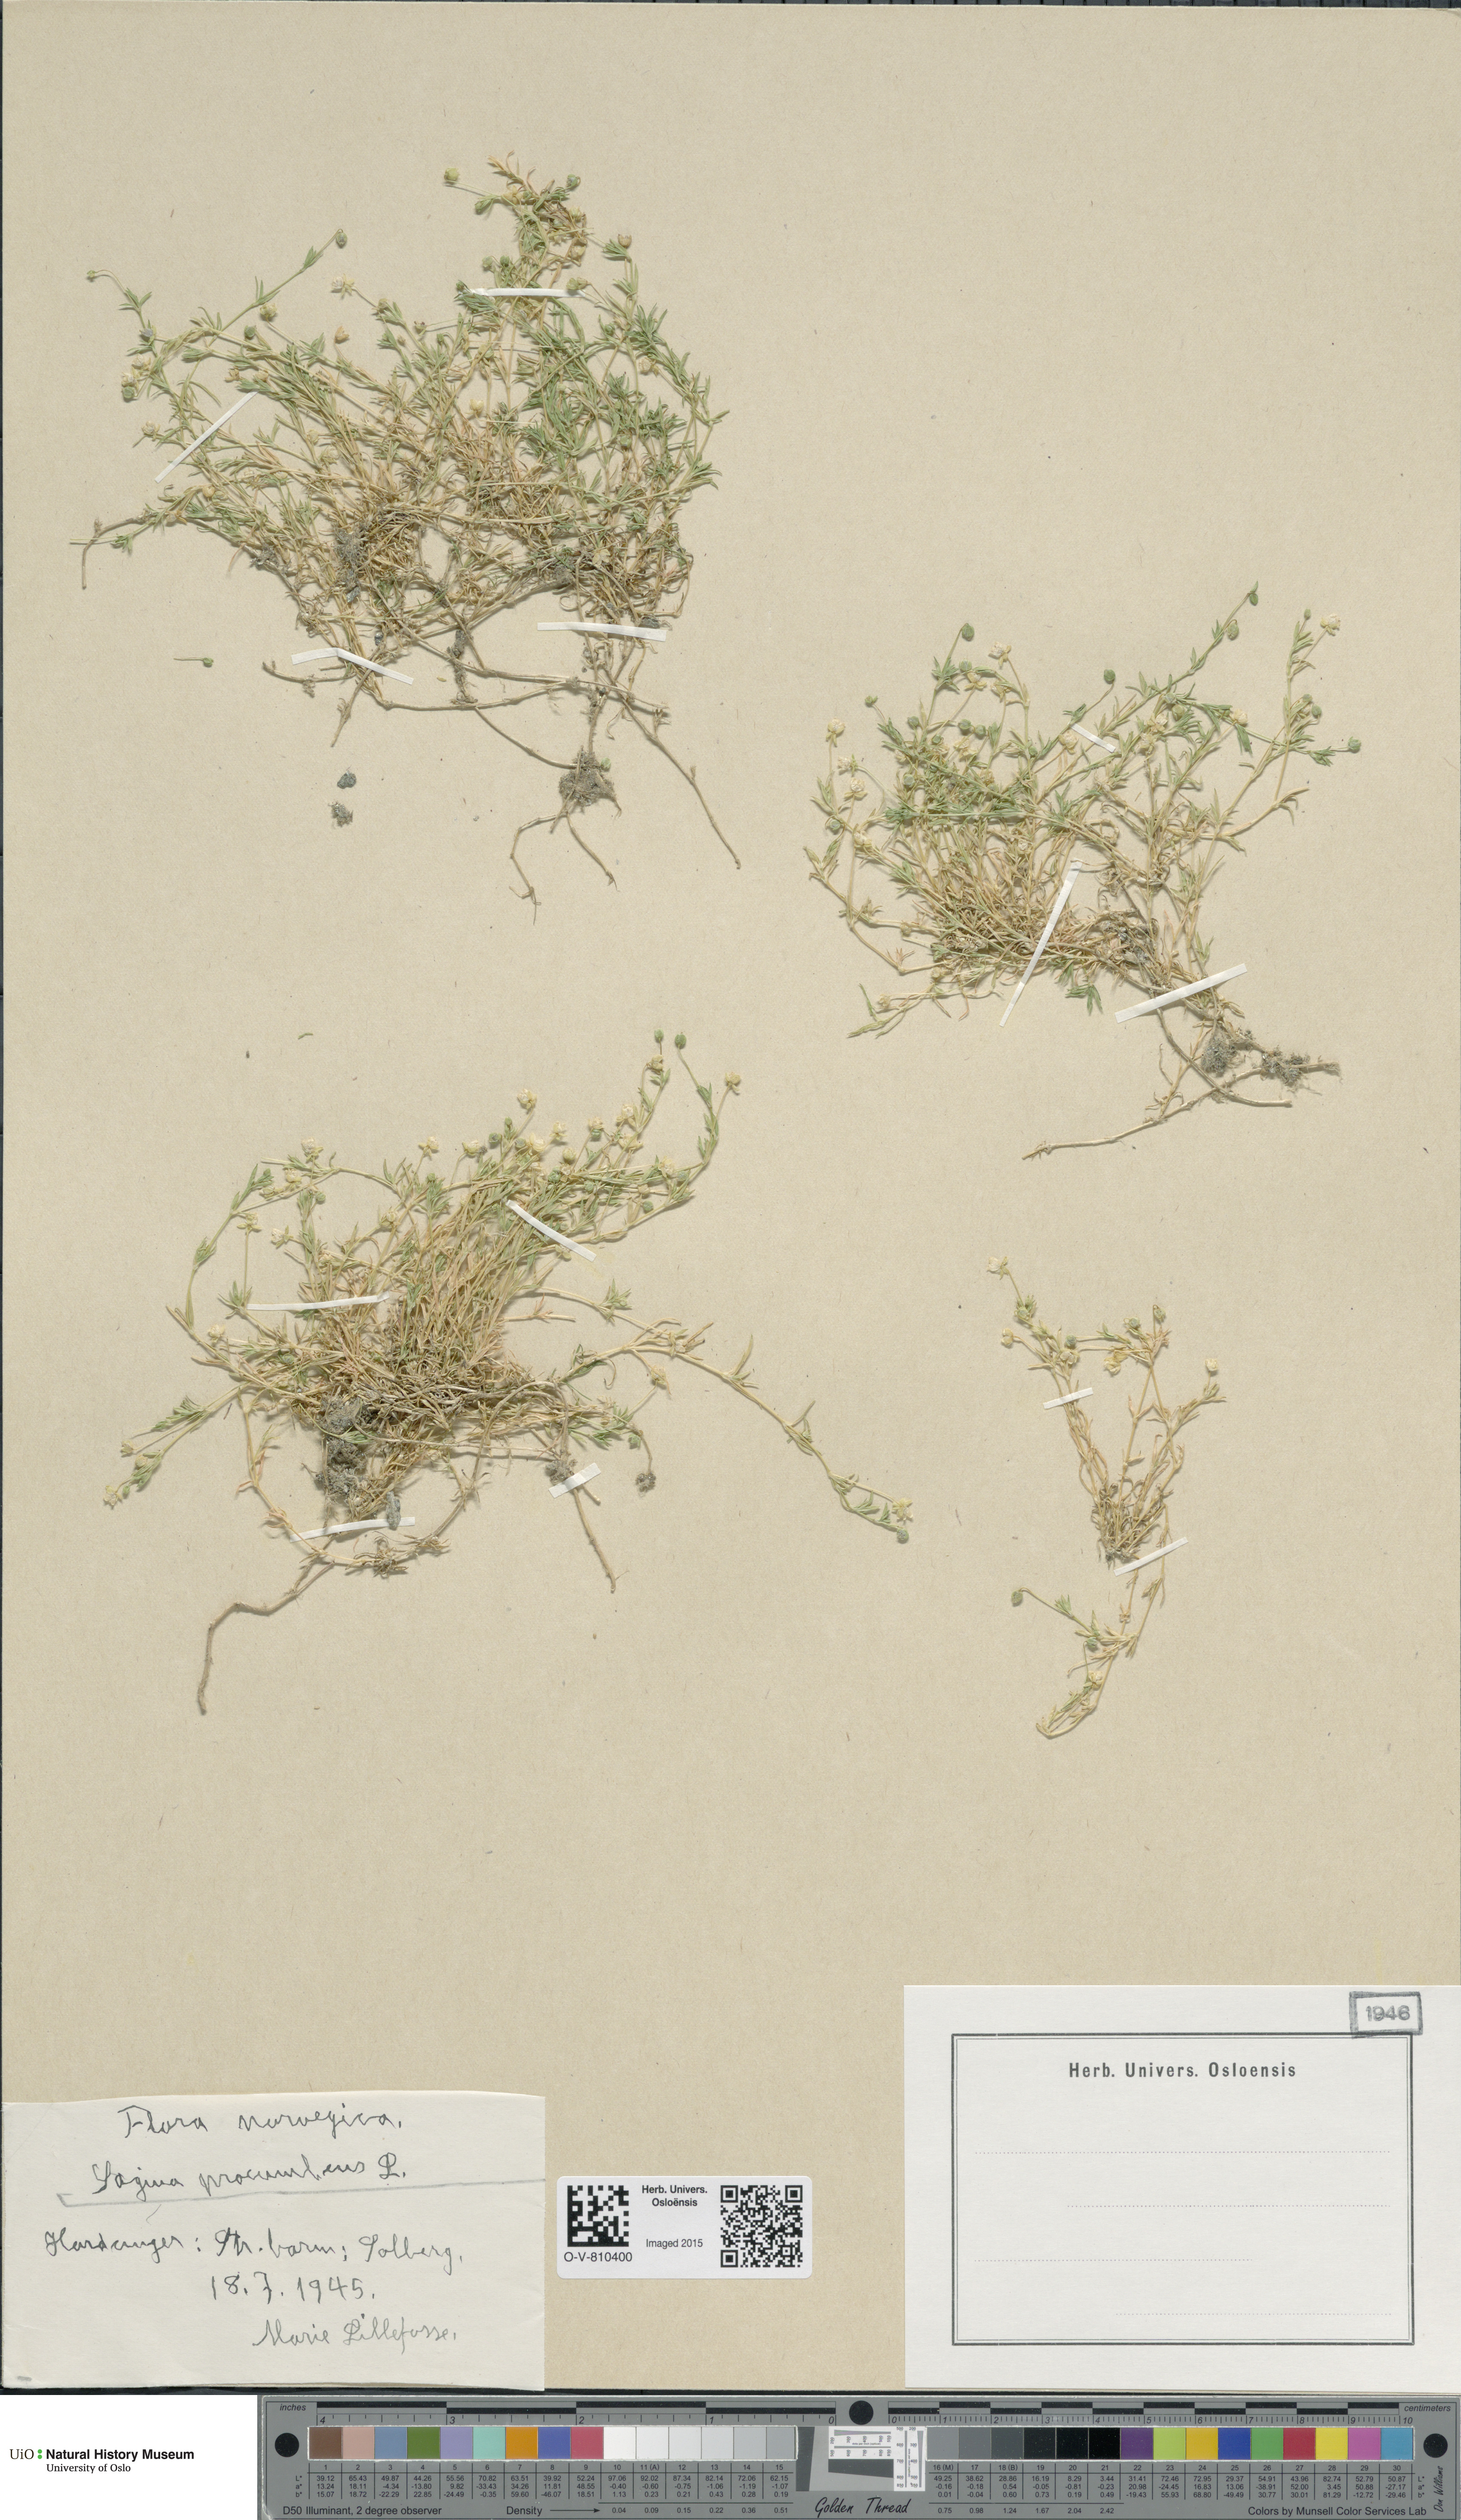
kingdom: Plantae
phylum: Tracheophyta
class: Magnoliopsida
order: Caryophyllales
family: Caryophyllaceae
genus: Sagina
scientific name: Sagina procumbens
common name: Procumbent pearlwort
